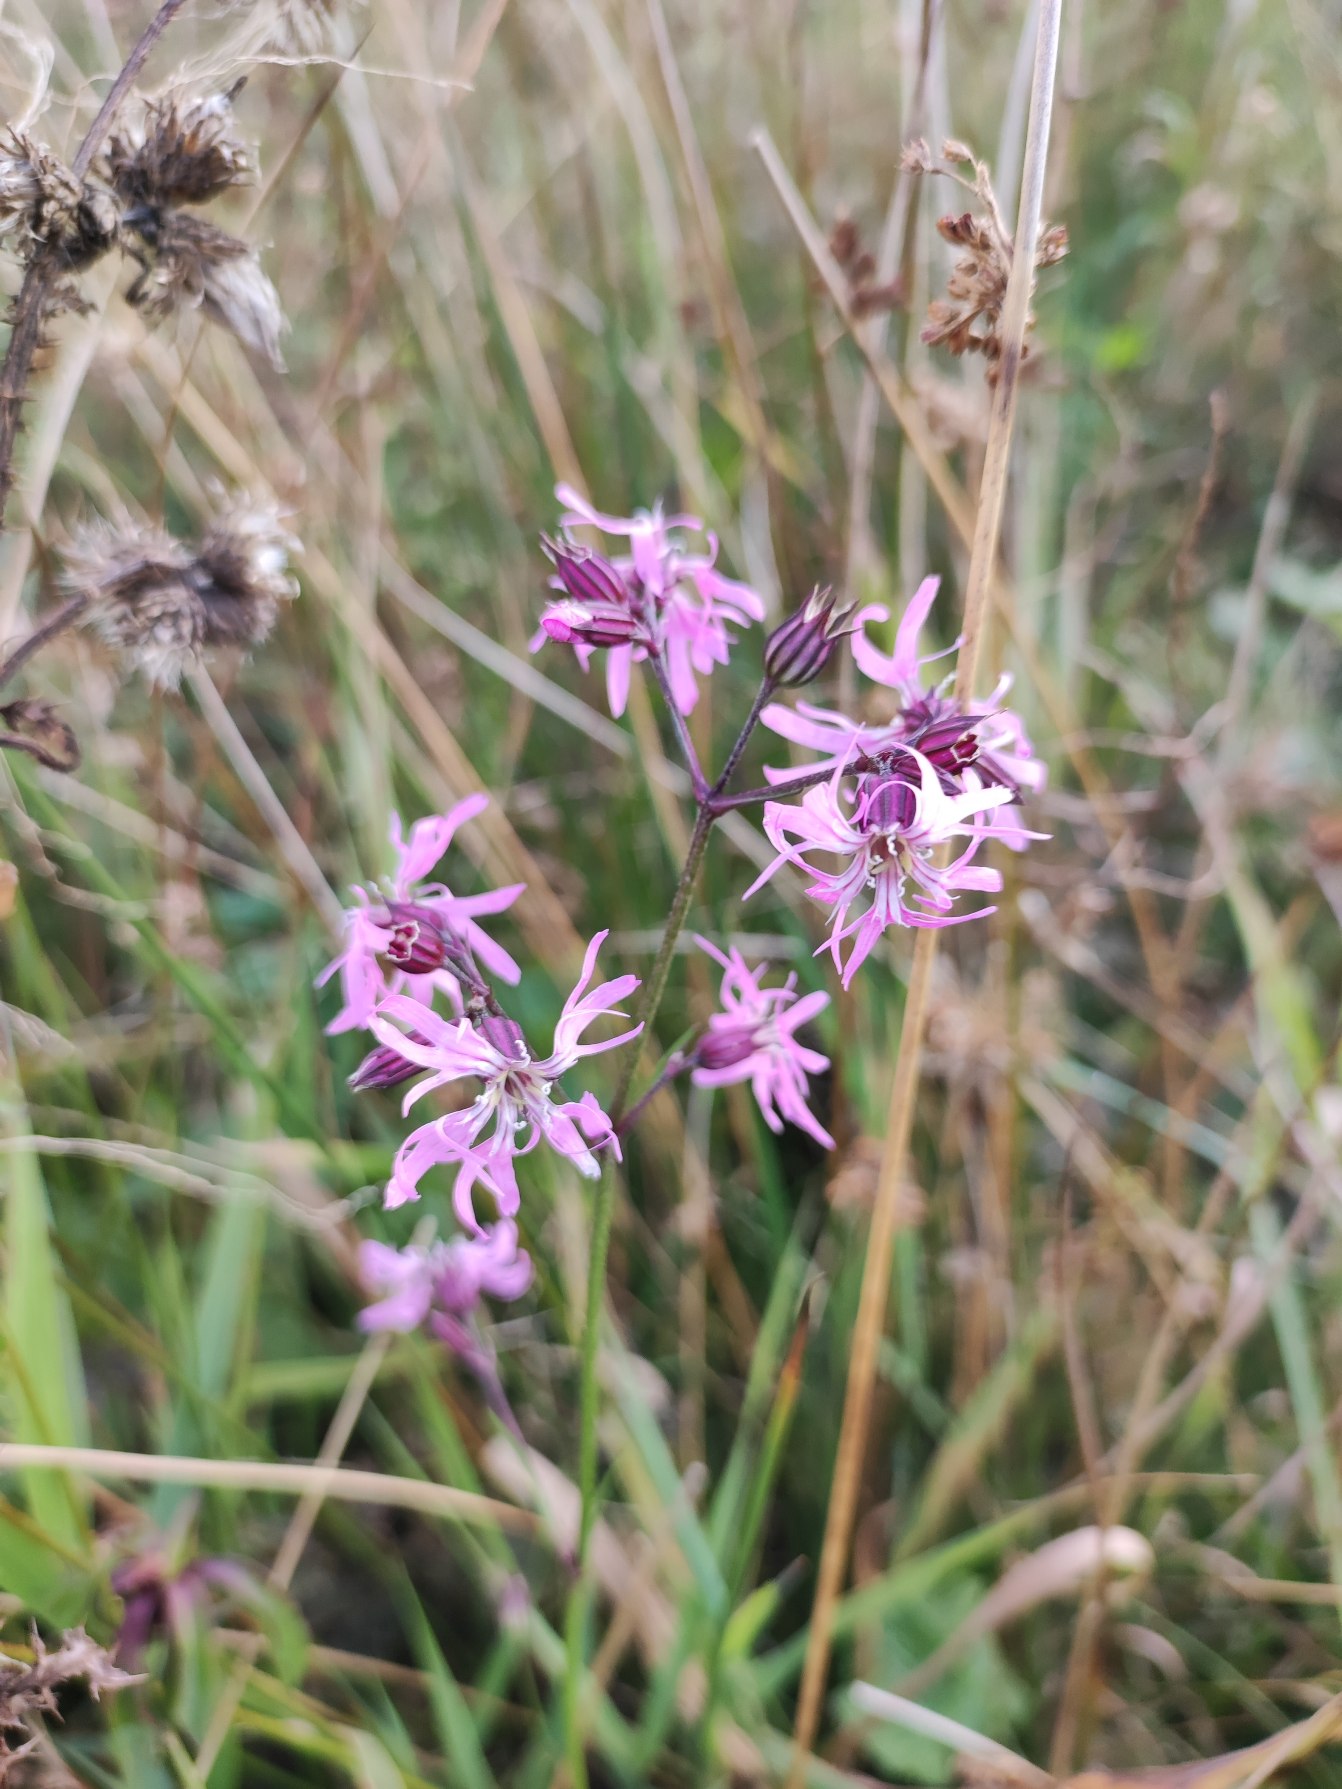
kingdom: Plantae
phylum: Tracheophyta
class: Magnoliopsida
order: Caryophyllales
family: Caryophyllaceae
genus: Silene
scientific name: Silene flos-cuculi
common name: Trævlekrone
